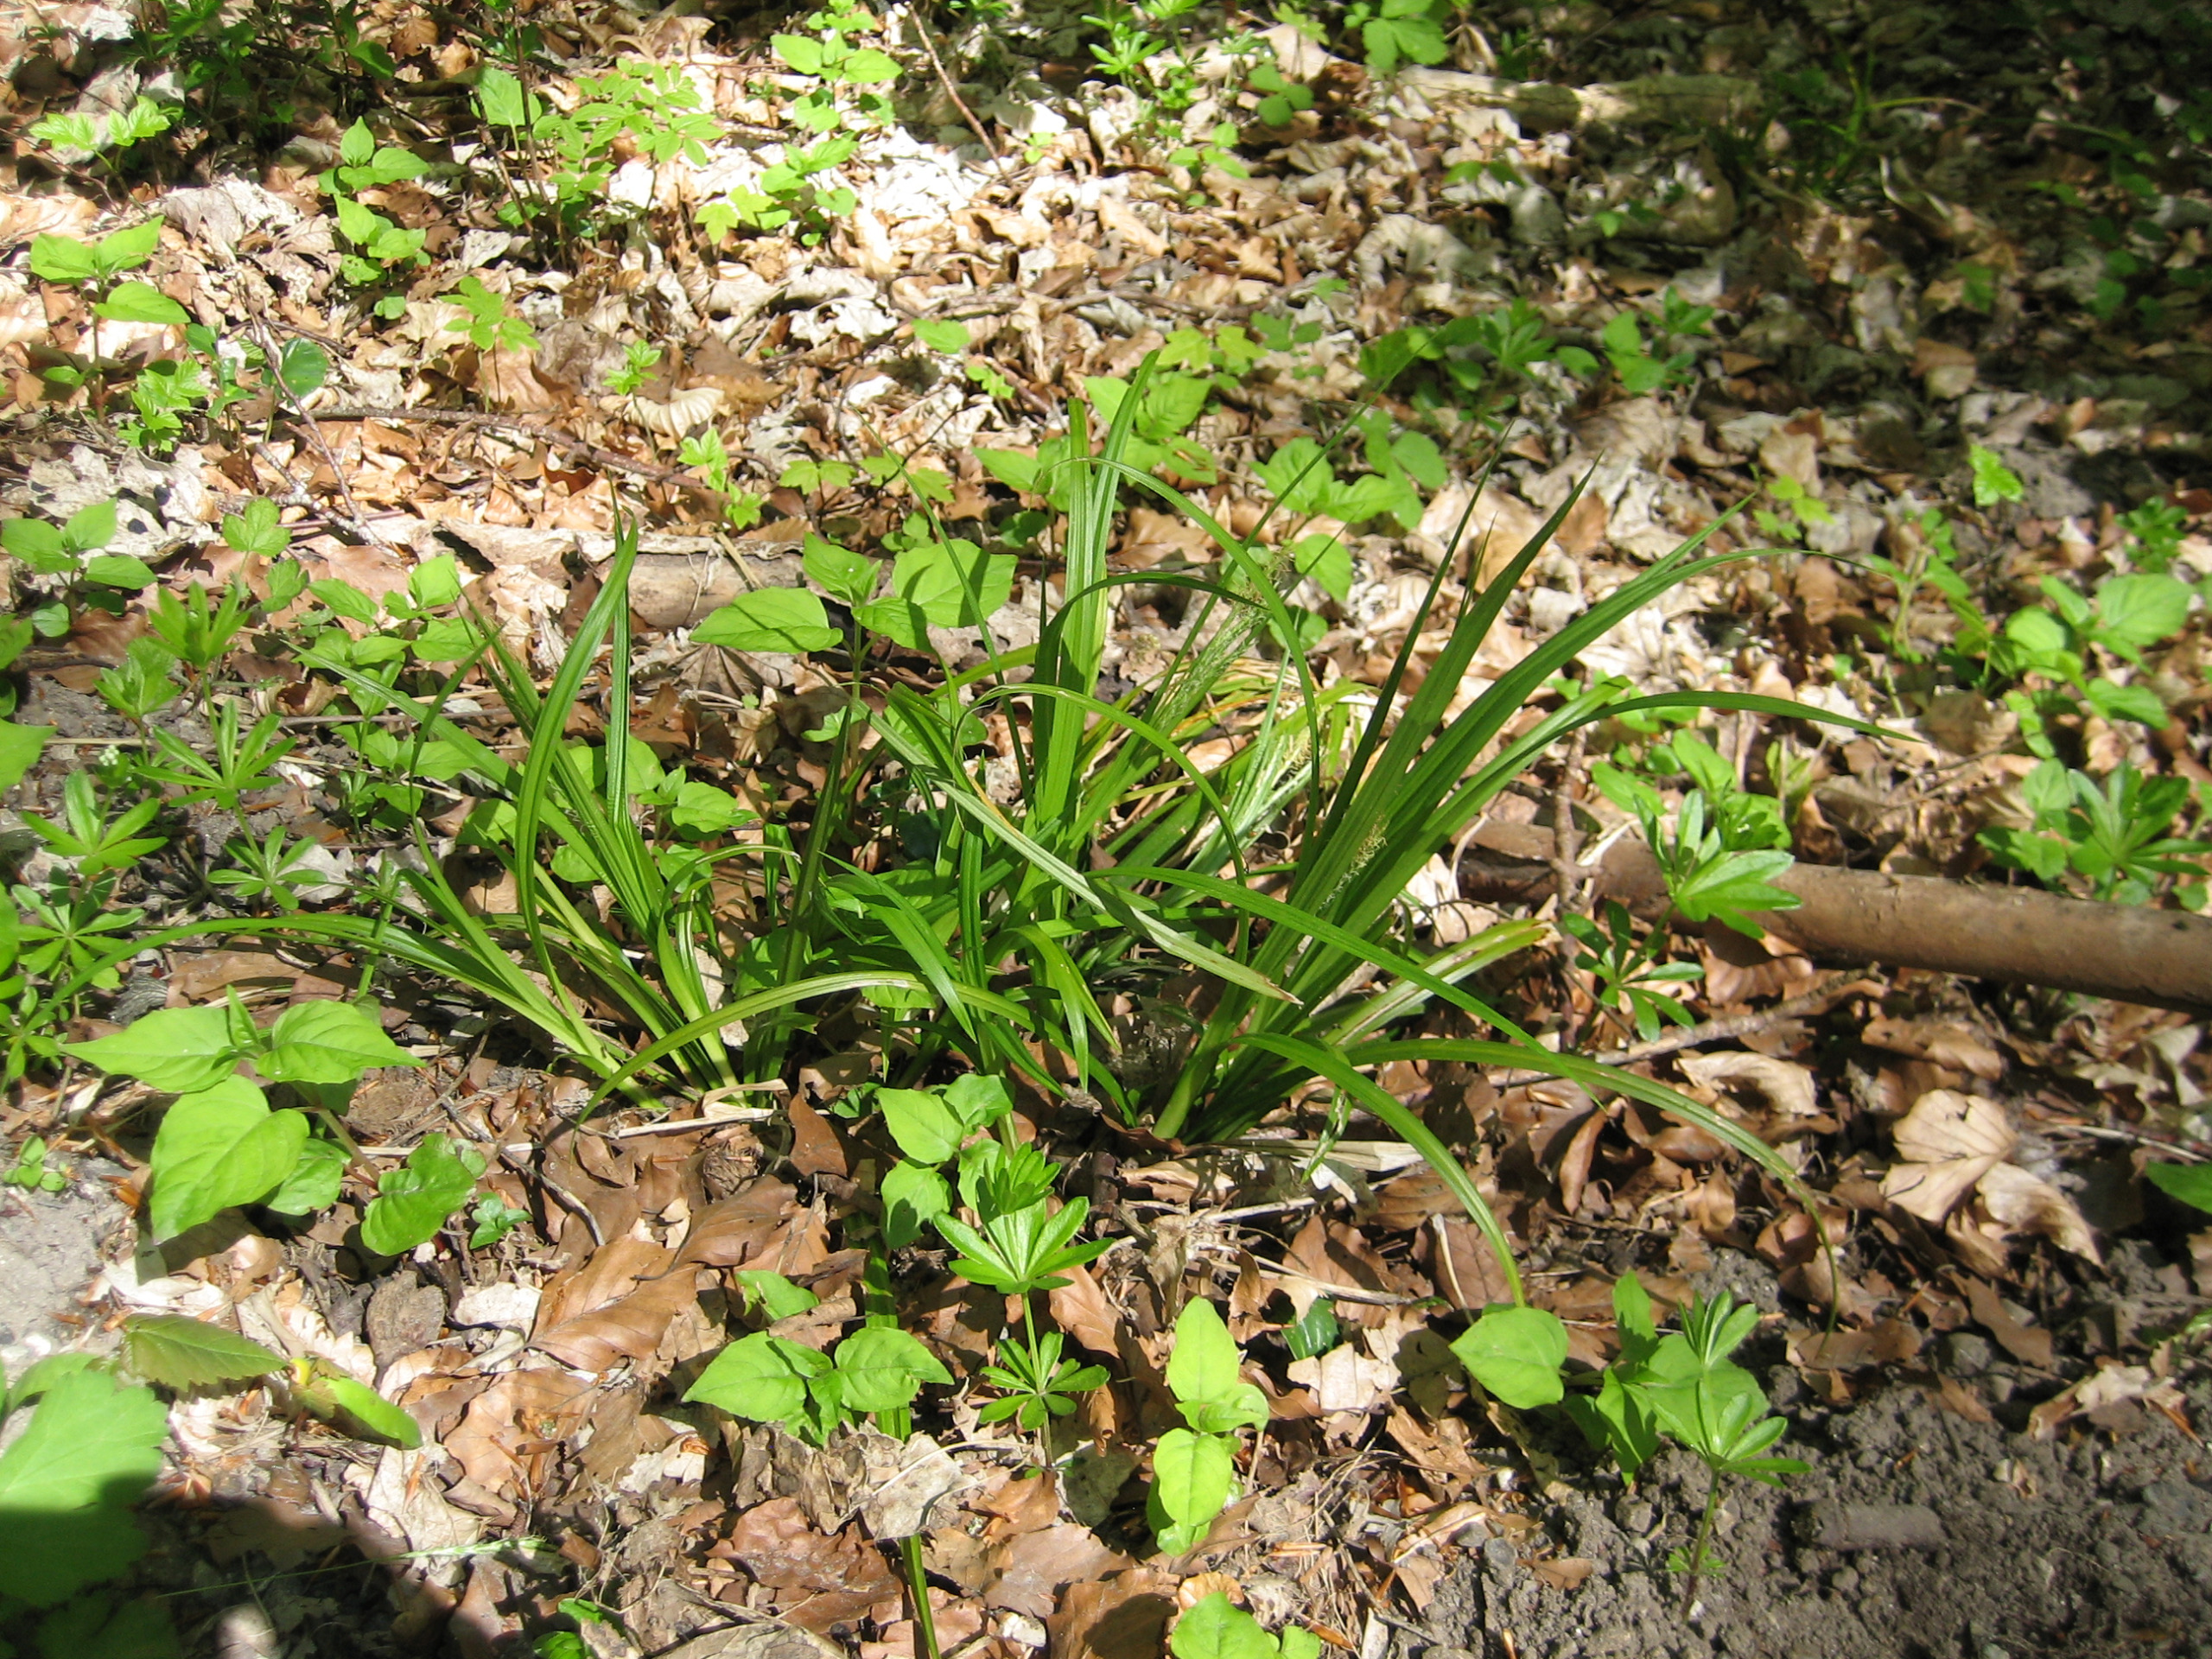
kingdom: Plantae
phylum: Tracheophyta
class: Liliopsida
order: Poales
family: Cyperaceae
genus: Carex
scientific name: Carex sylvatica
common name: Skov-star
